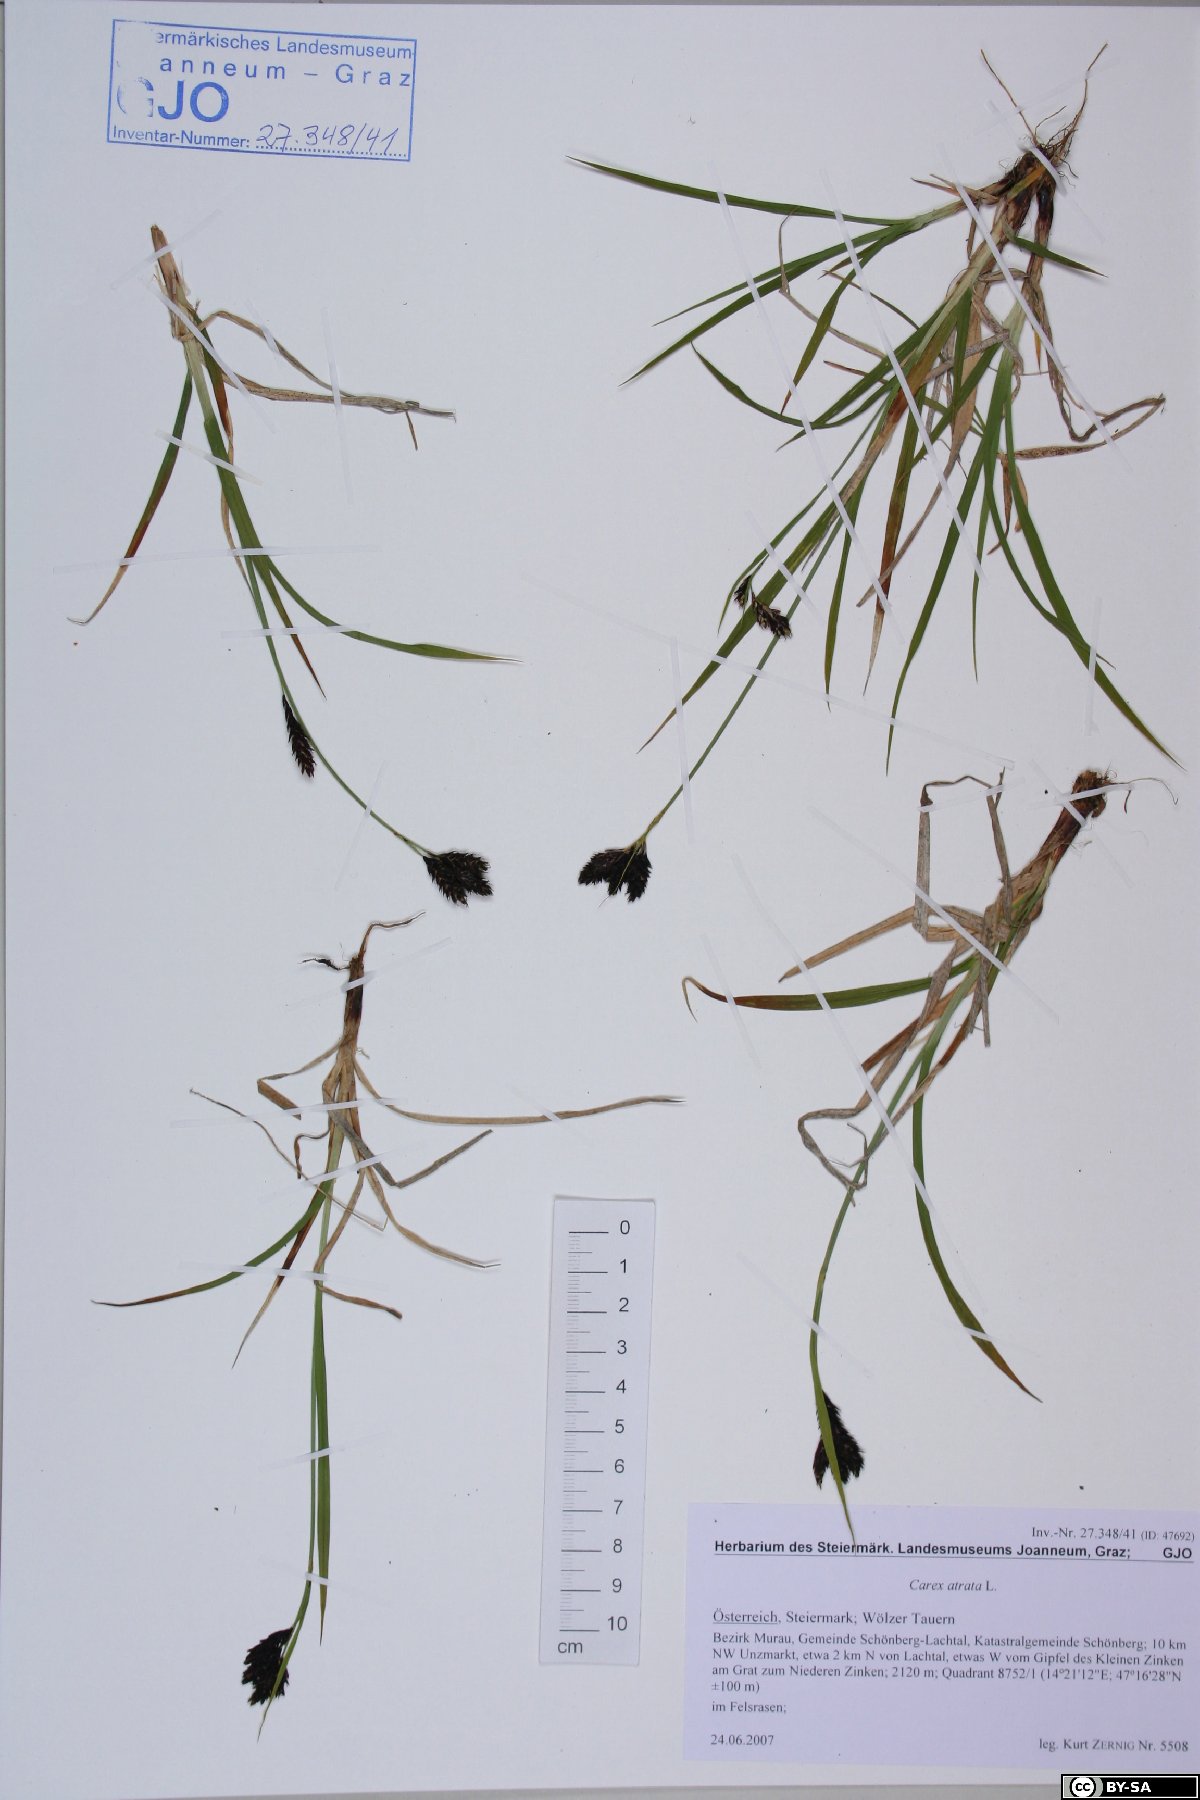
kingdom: Plantae
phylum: Tracheophyta
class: Liliopsida
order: Poales
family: Cyperaceae
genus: Carex
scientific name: Carex atrata
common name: Black alpine sedge
